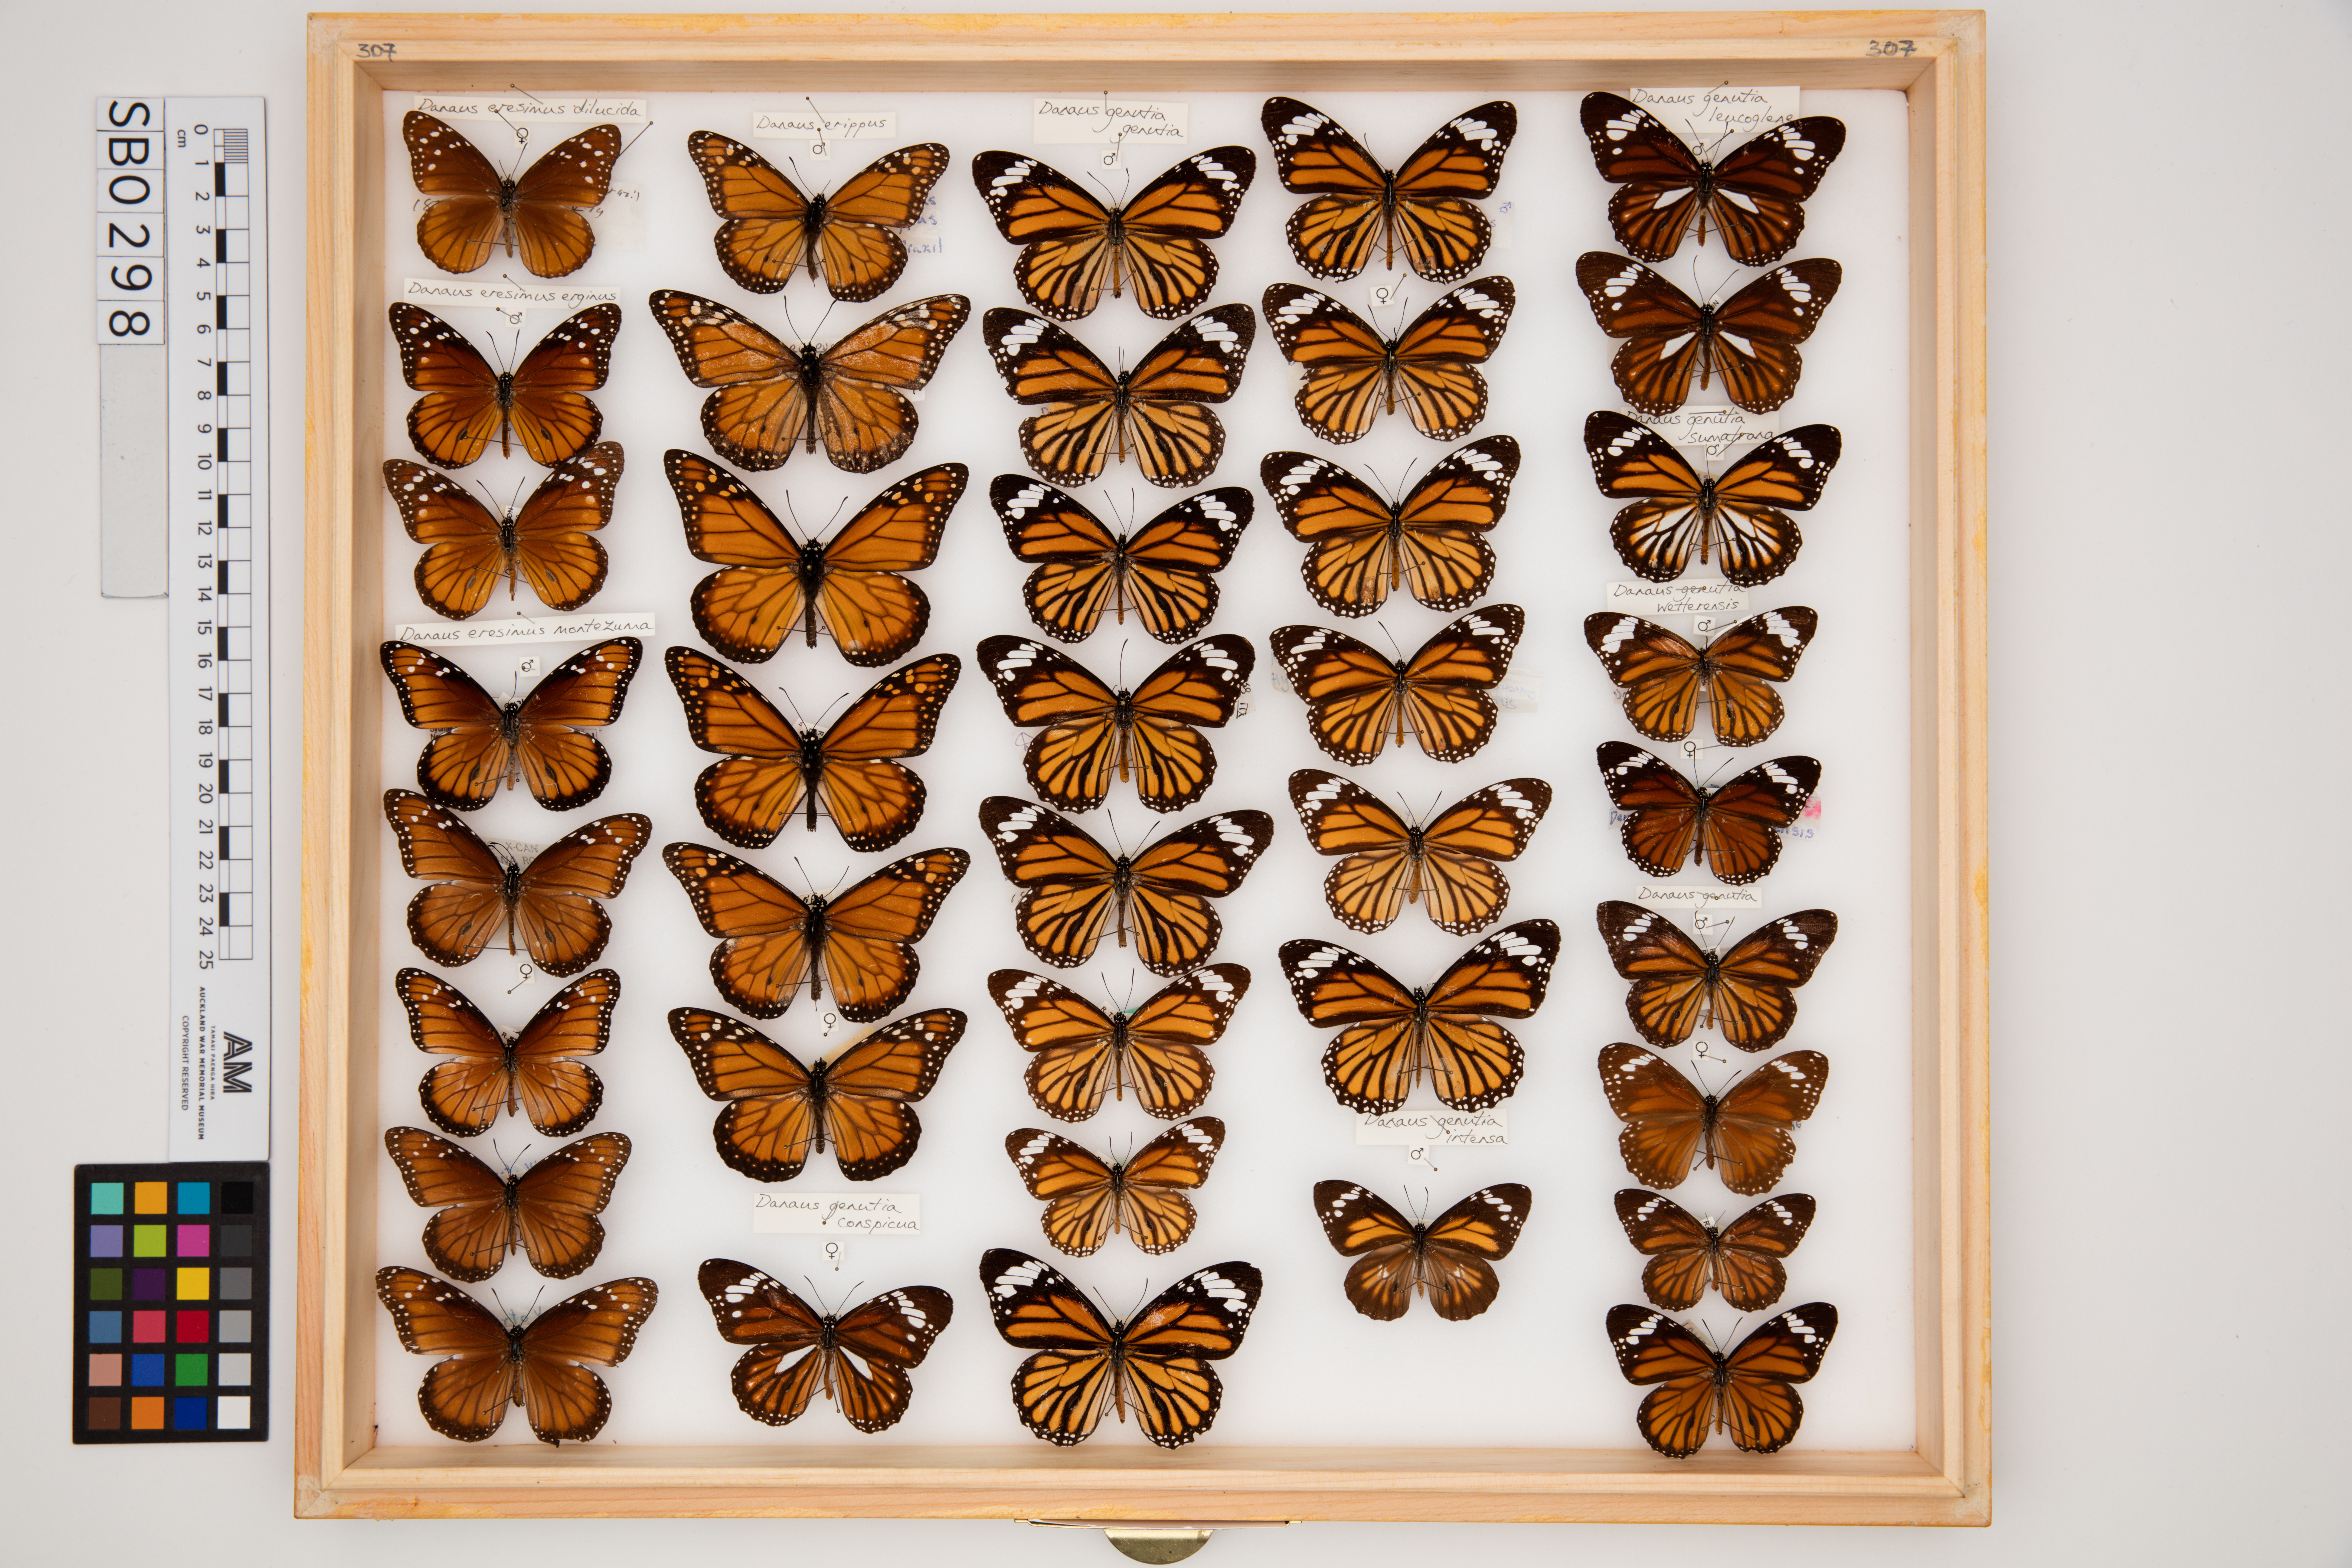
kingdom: Animalia
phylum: Arthropoda
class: Insecta
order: Lepidoptera
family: Nymphalidae
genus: Danaus
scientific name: Danaus genutia
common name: Common tiger butterfly
